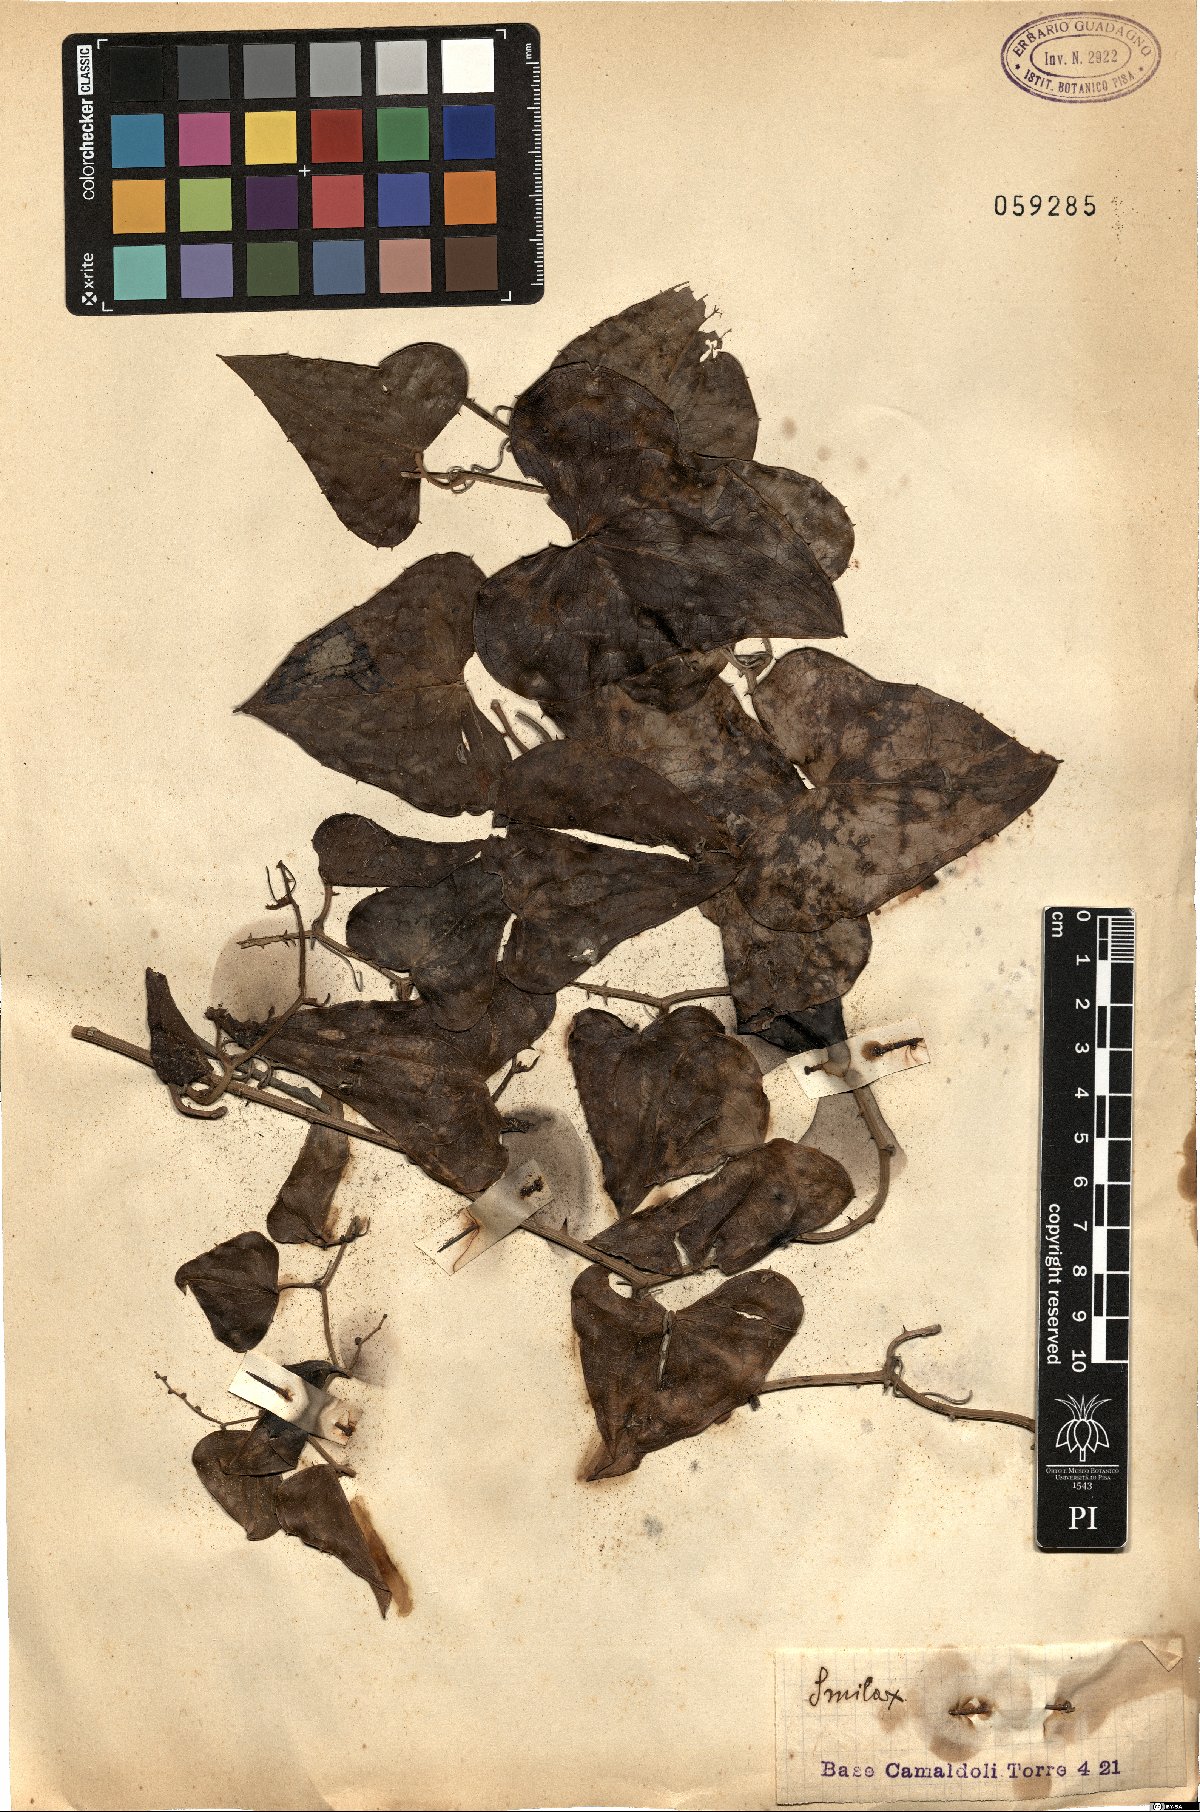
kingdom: Plantae
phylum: Tracheophyta
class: Liliopsida
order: Liliales
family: Smilacaceae
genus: Smilax
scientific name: Smilax
